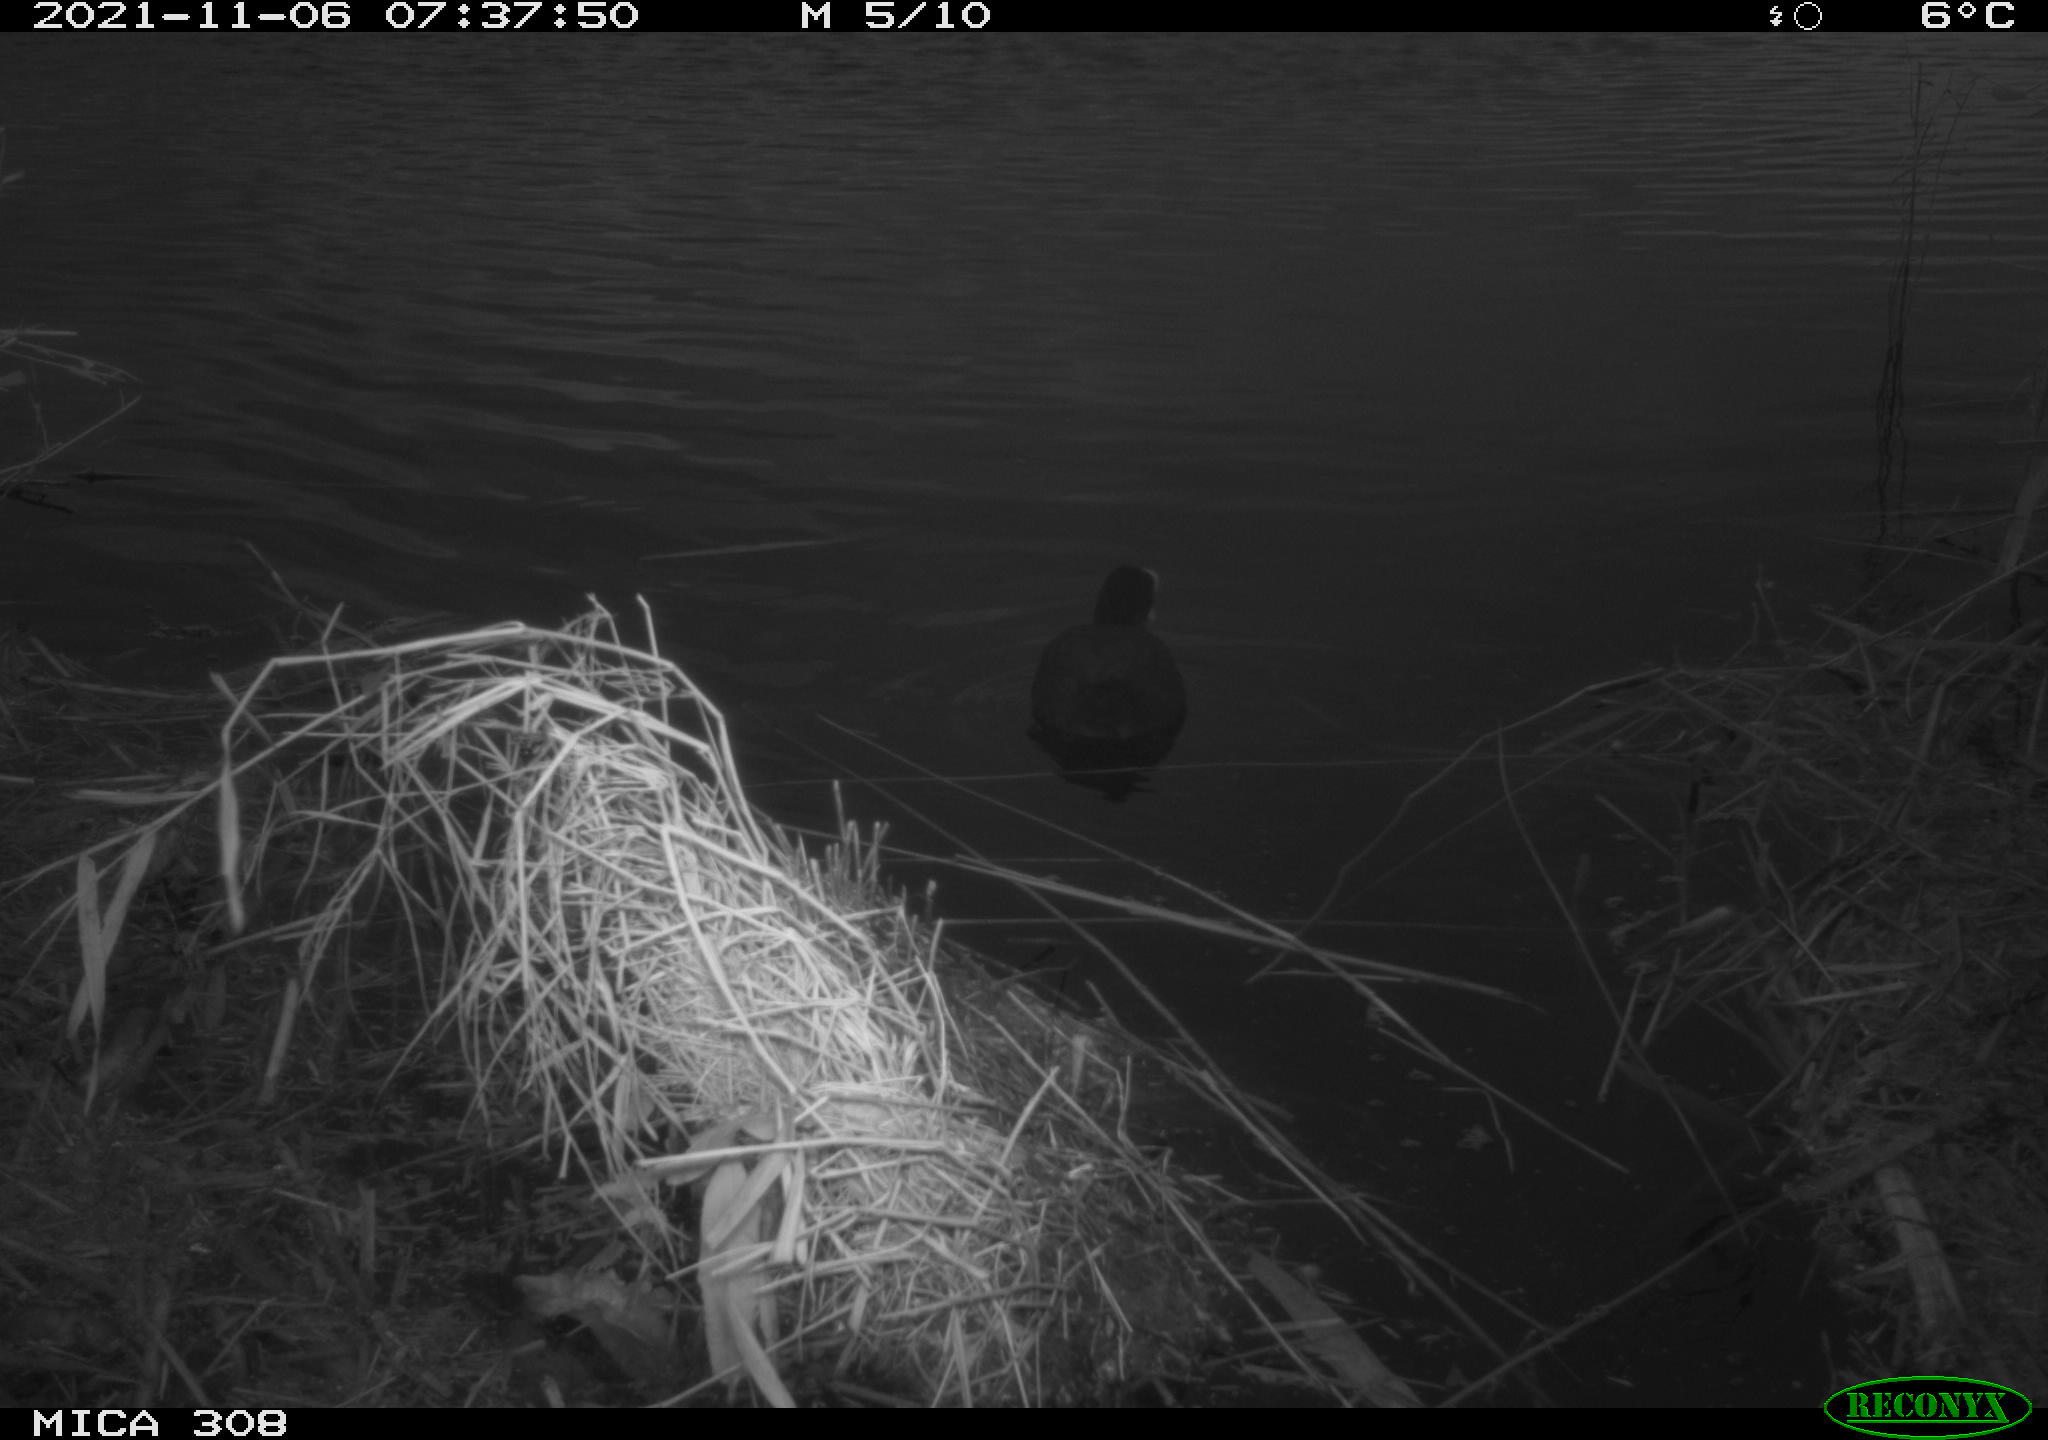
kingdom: Animalia
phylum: Chordata
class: Aves
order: Gruiformes
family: Rallidae
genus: Fulica
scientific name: Fulica atra
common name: Eurasian coot
